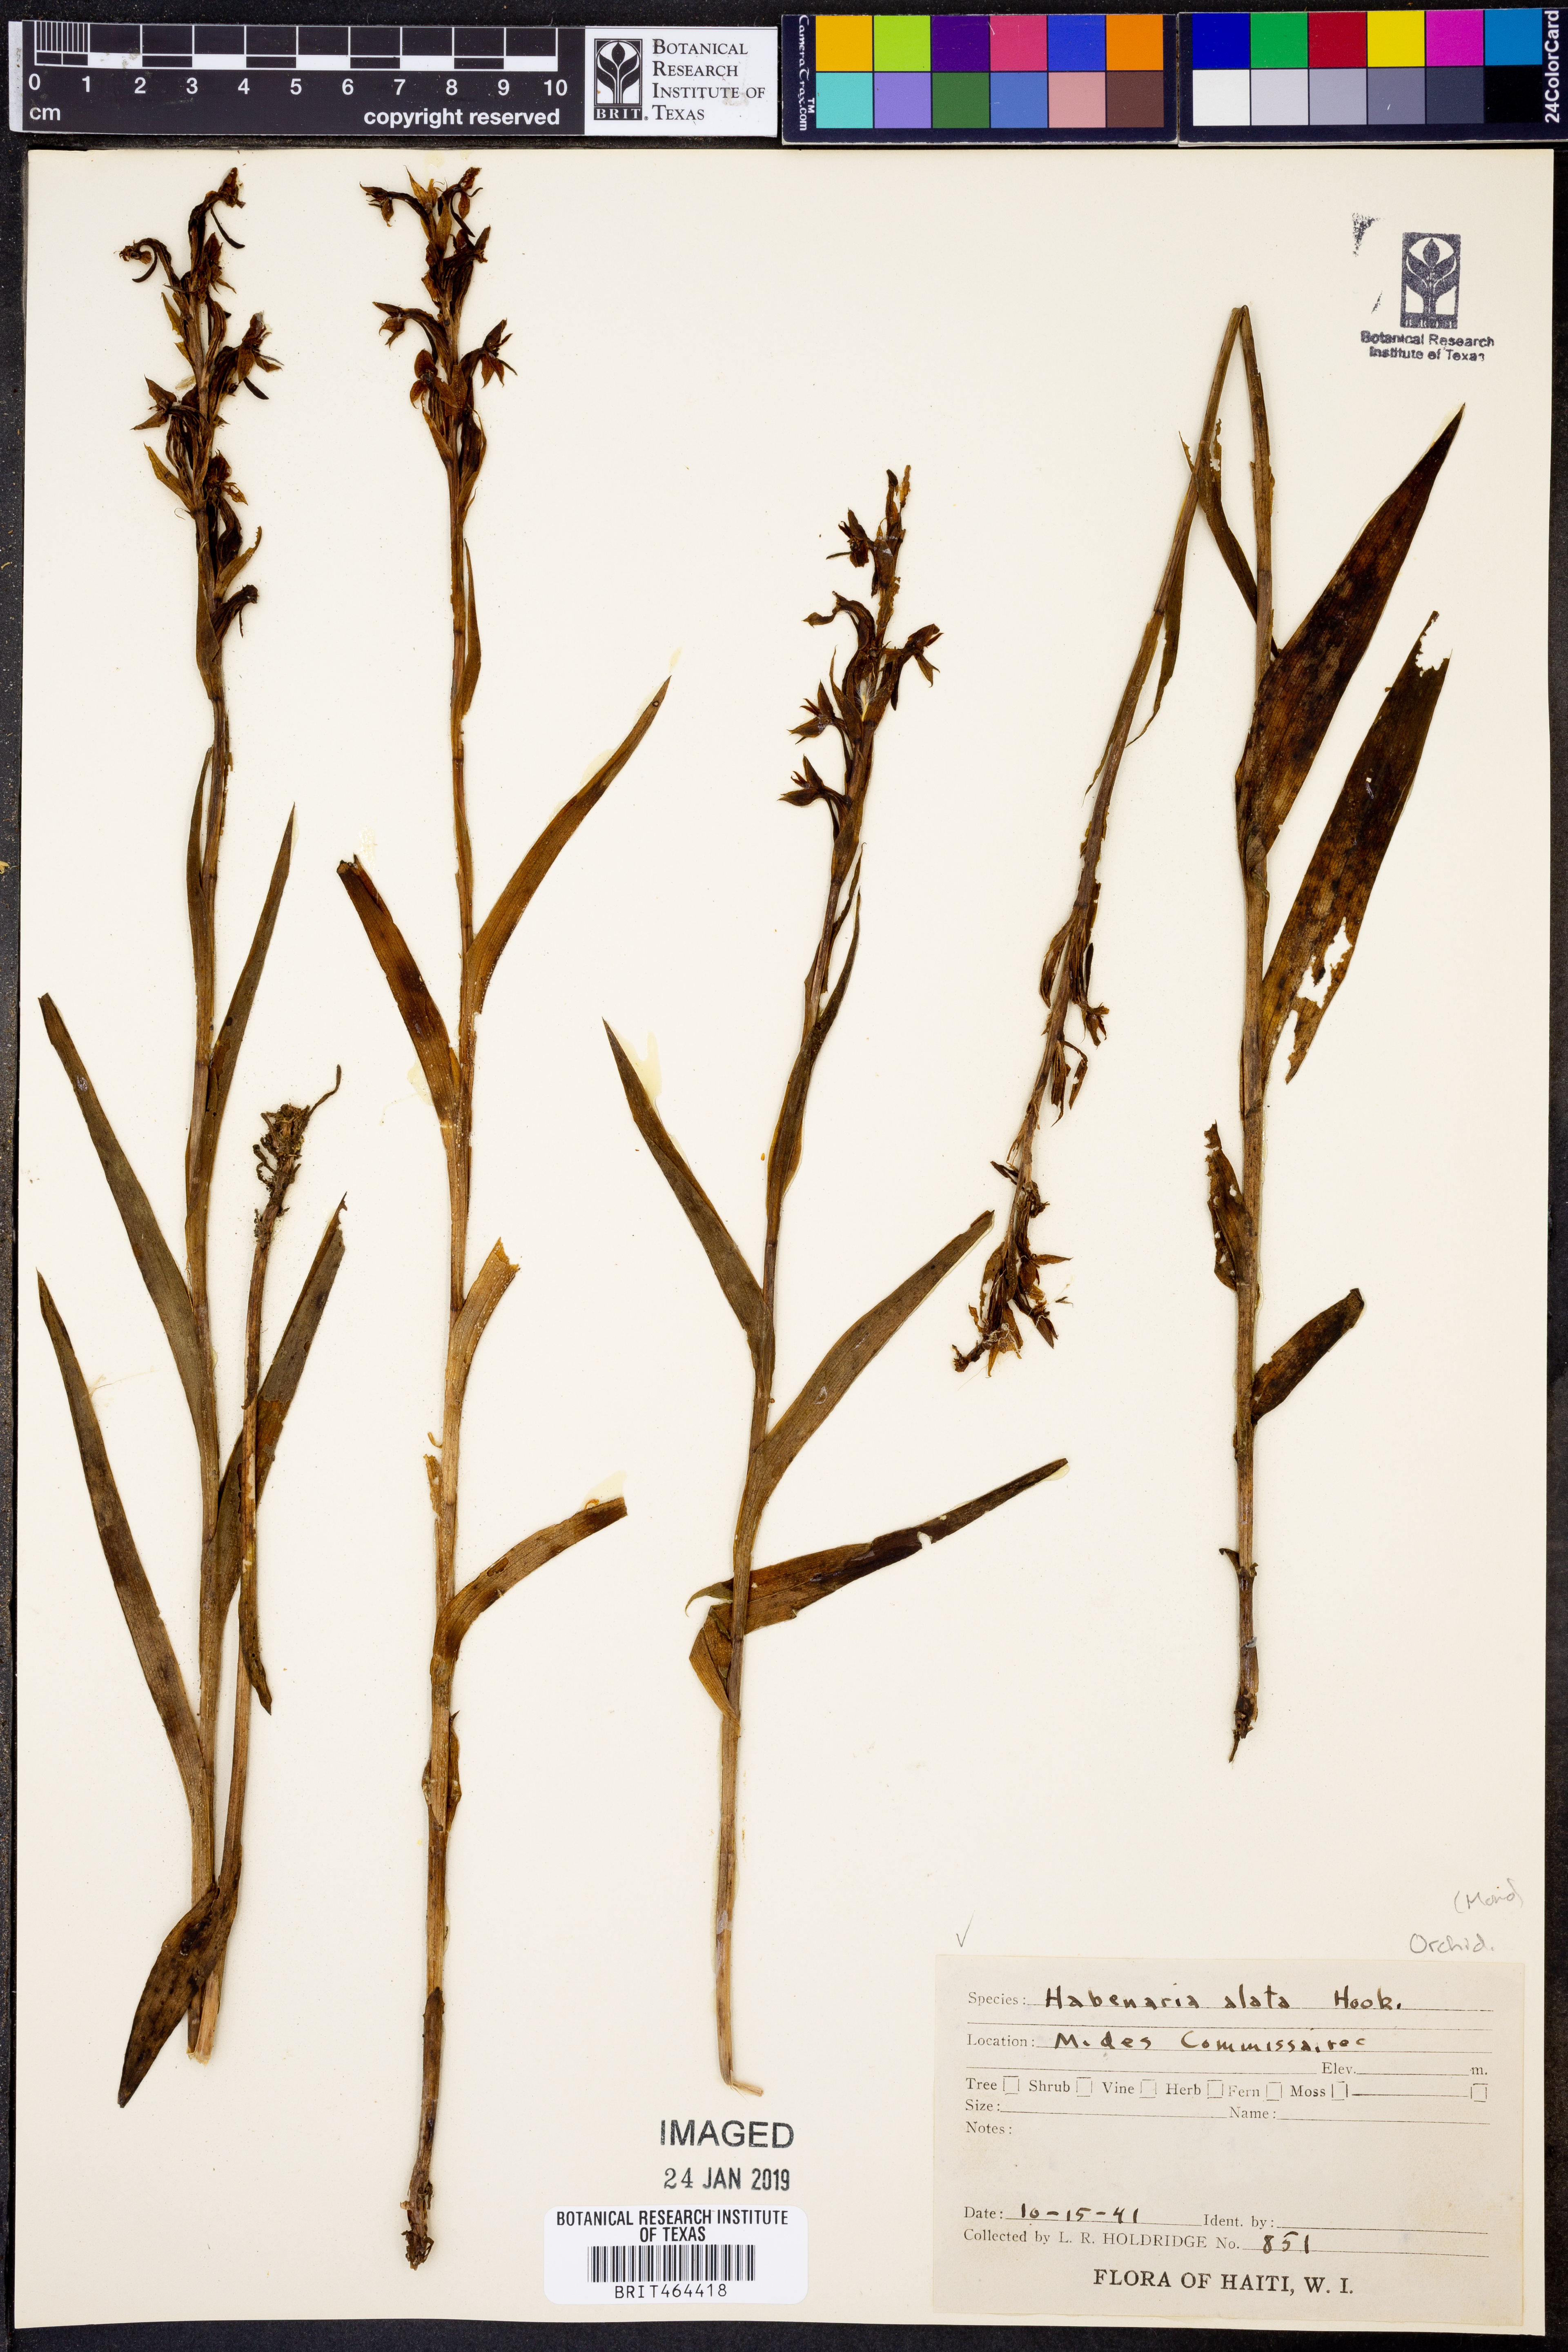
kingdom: Plantae
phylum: Tracheophyta
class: Liliopsida
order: Asparagales
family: Orchidaceae
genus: Habenaria
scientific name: Habenaria alata
